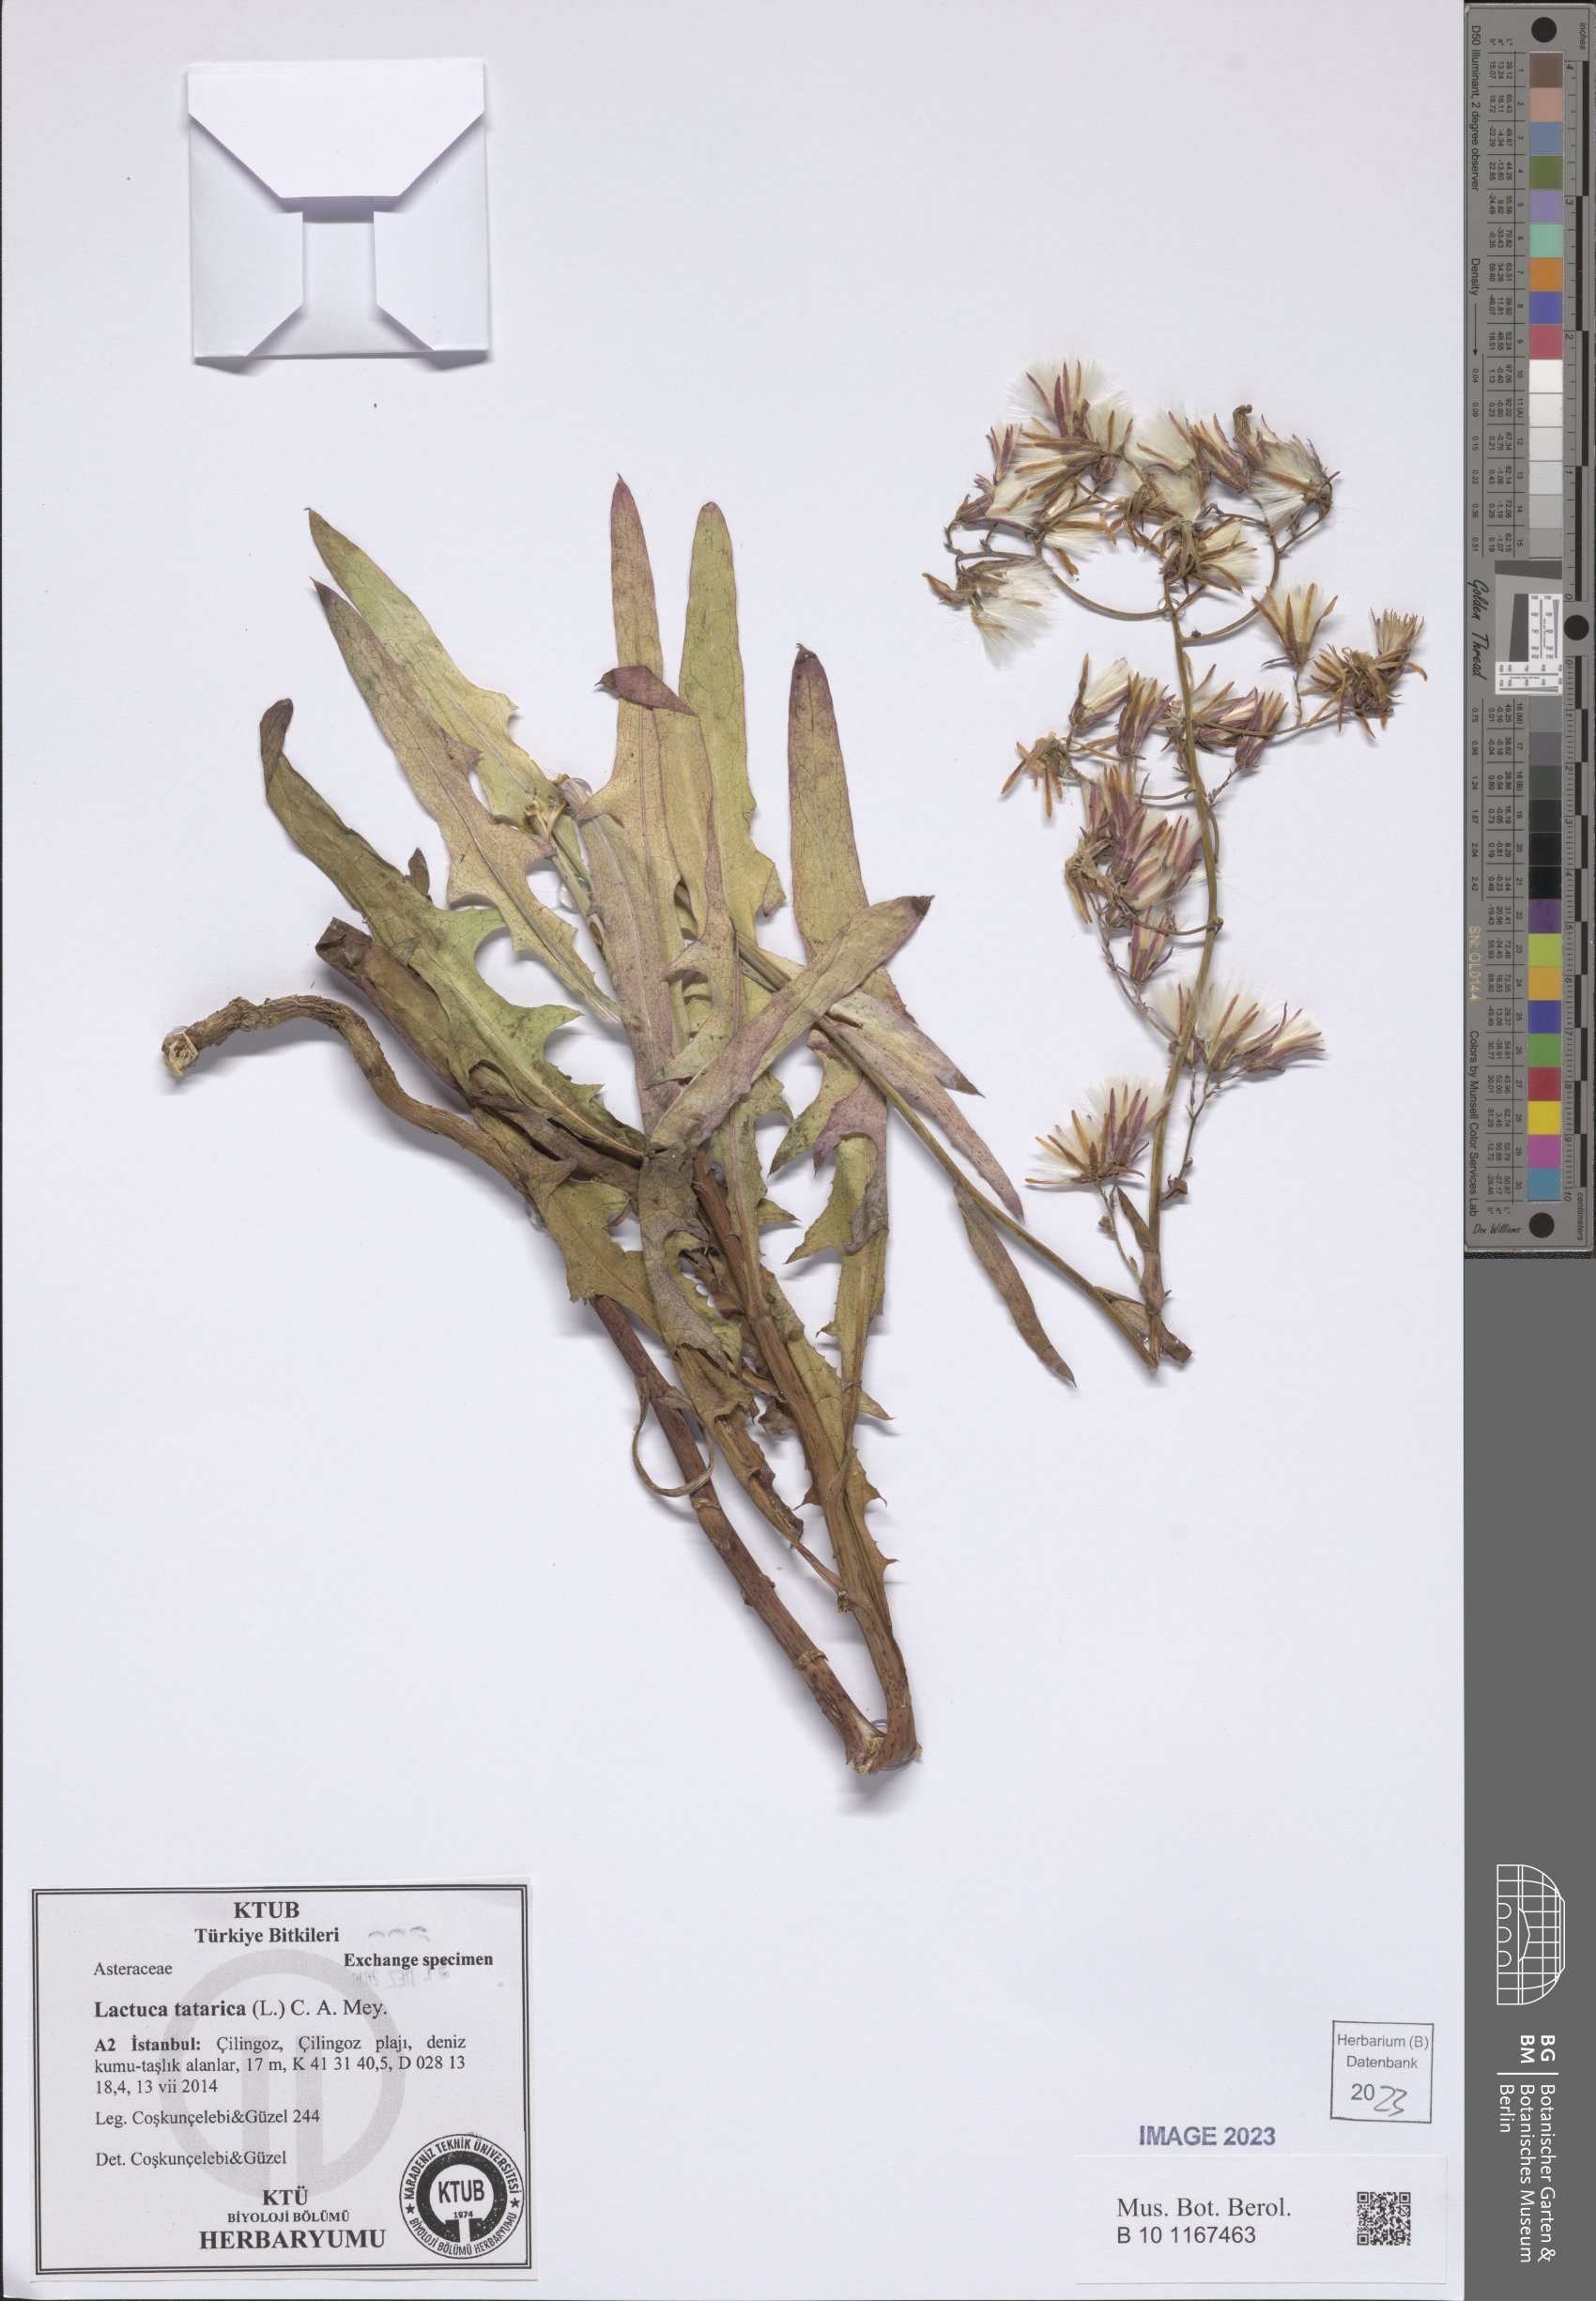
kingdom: Plantae
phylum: Tracheophyta
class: Magnoliopsida
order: Asterales
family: Asteraceae
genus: Lactuca
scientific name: Lactuca tatarica
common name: Blue lettuce
